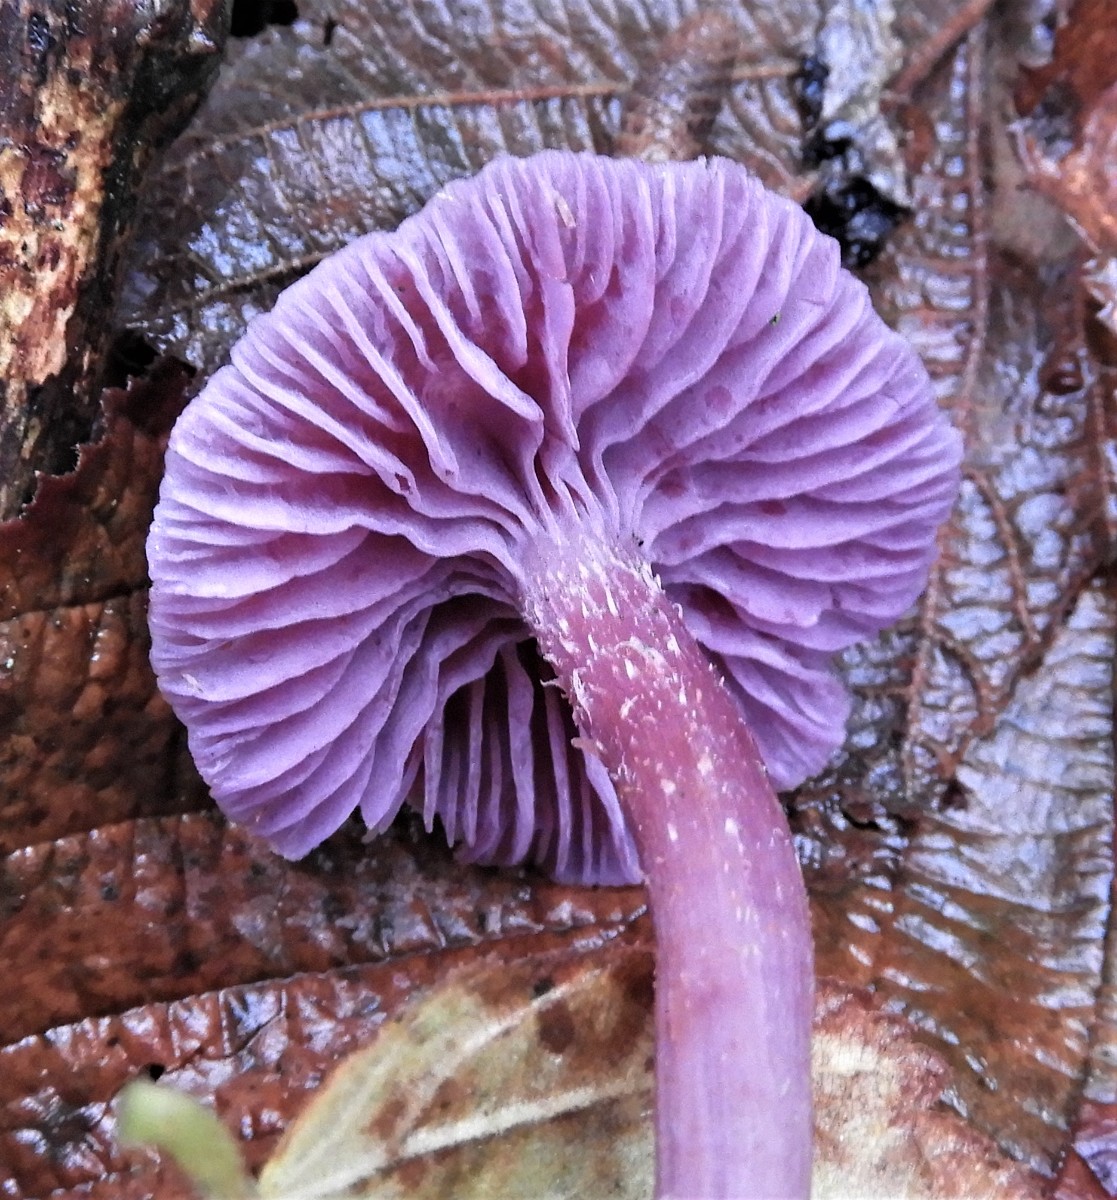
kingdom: Fungi
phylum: Basidiomycota
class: Agaricomycetes
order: Agaricales
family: Hydnangiaceae
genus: Laccaria
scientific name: Laccaria amethystina
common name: violet ametysthat
